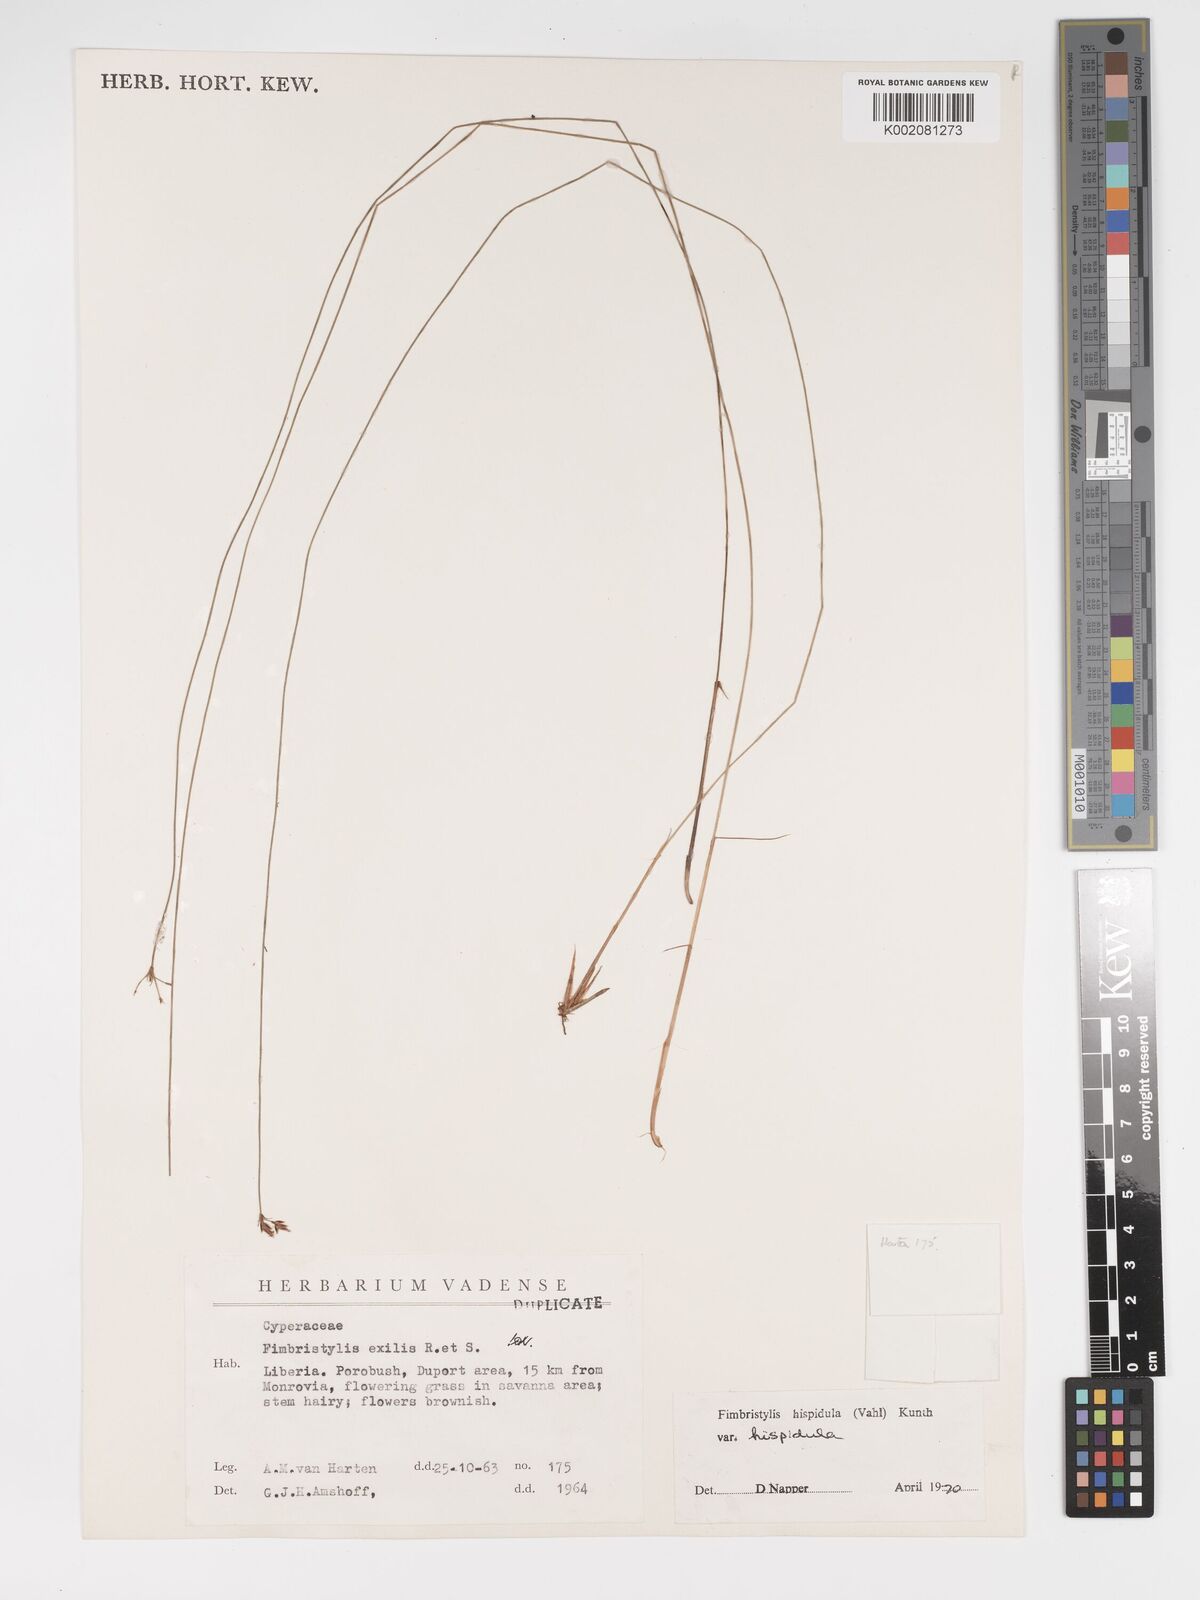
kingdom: Plantae
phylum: Tracheophyta
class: Liliopsida
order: Poales
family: Cyperaceae
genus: Bulbostylis
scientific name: Bulbostylis hispidula
